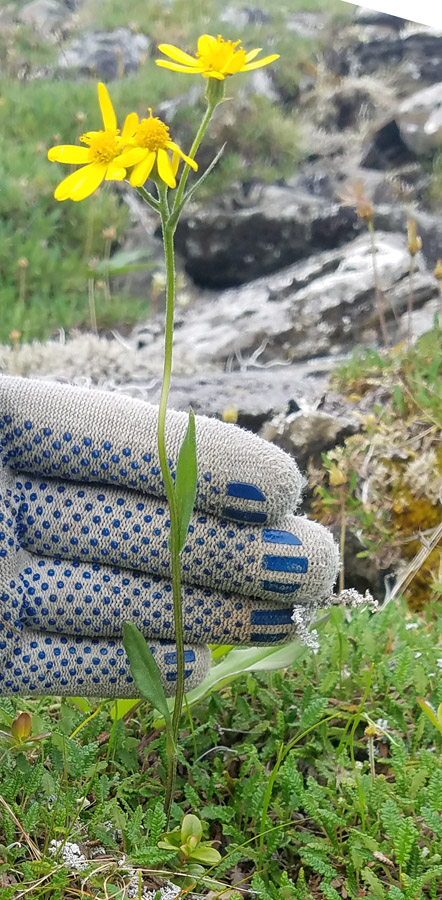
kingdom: Plantae
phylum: Tracheophyta
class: Magnoliopsida
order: Asterales
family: Asteraceae
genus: Tephroseris
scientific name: Tephroseris integrifolia
